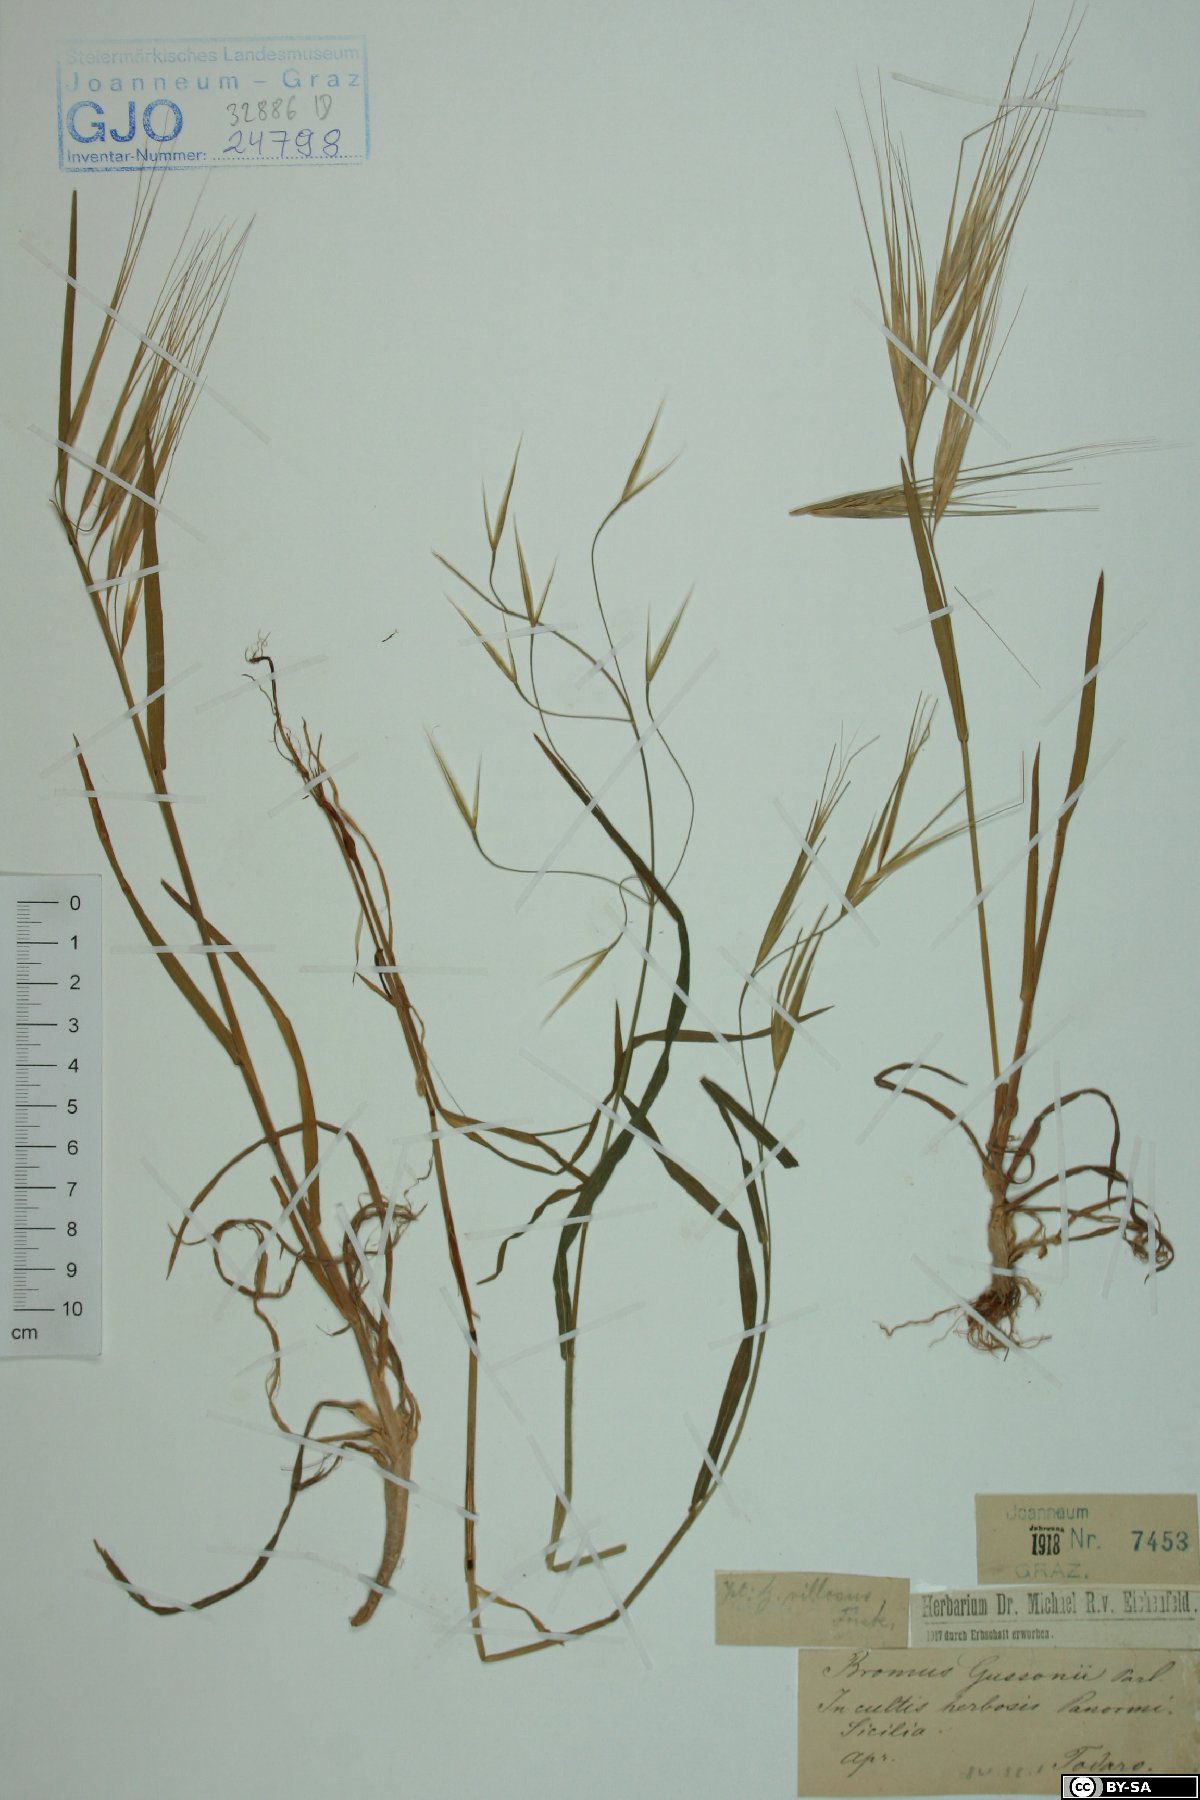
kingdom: Plantae
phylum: Tracheophyta
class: Liliopsida
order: Poales
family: Poaceae
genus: Bromus
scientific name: Bromus diandrus
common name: Ripgut brome
